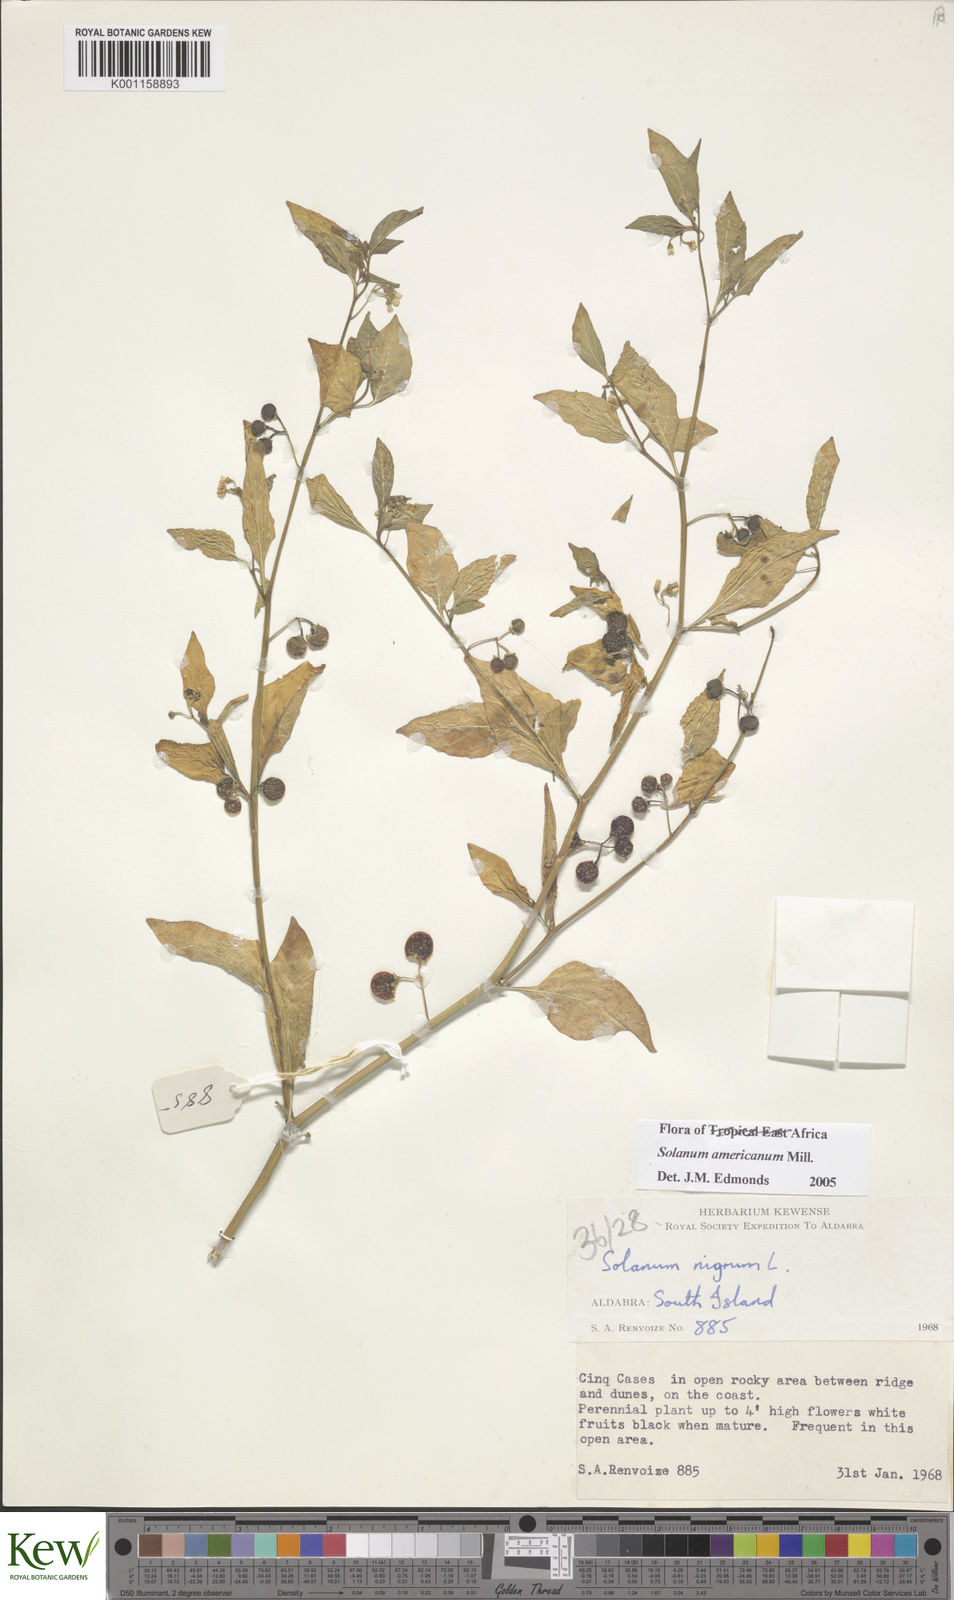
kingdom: Plantae
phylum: Tracheophyta
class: Magnoliopsida
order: Solanales
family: Solanaceae
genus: Solanum
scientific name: Solanum americanum
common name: American black nightshade
